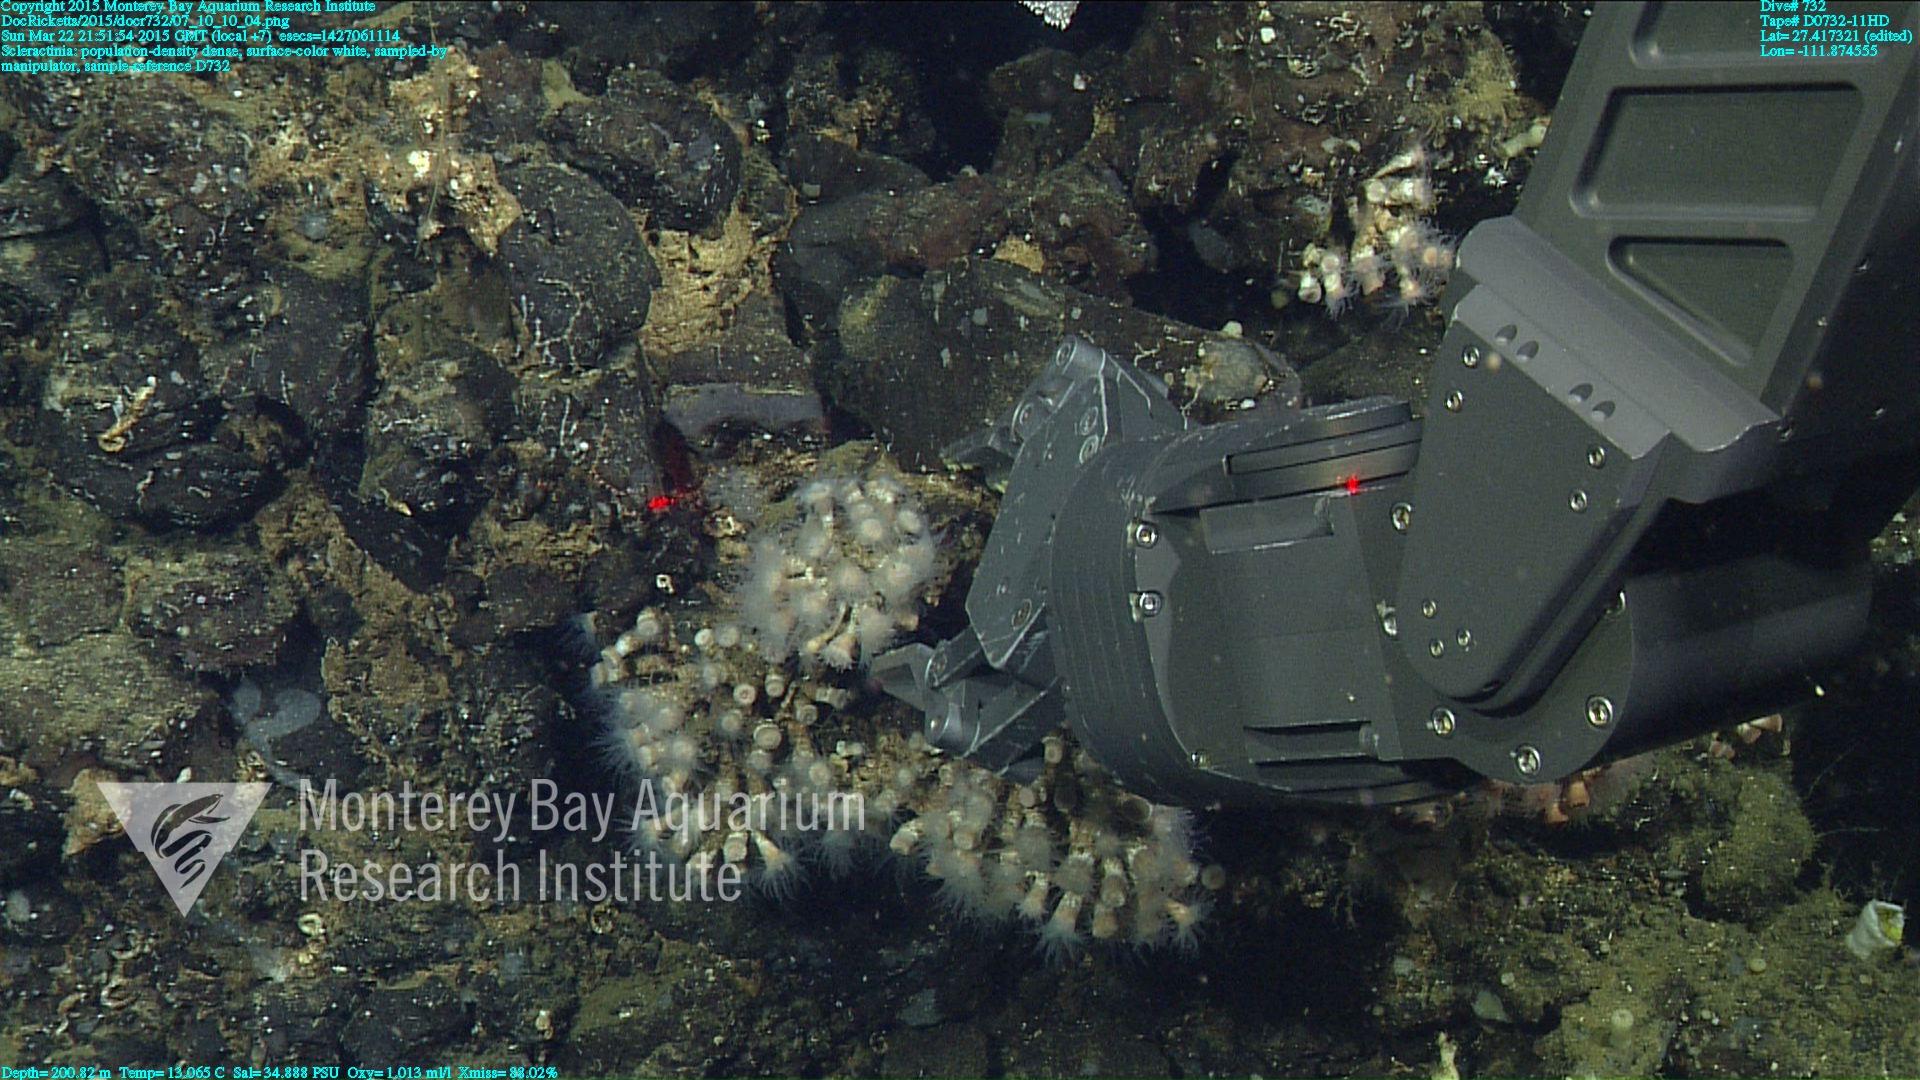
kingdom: Animalia
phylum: Cnidaria
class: Anthozoa
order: Scleractinia
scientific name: Scleractinia
